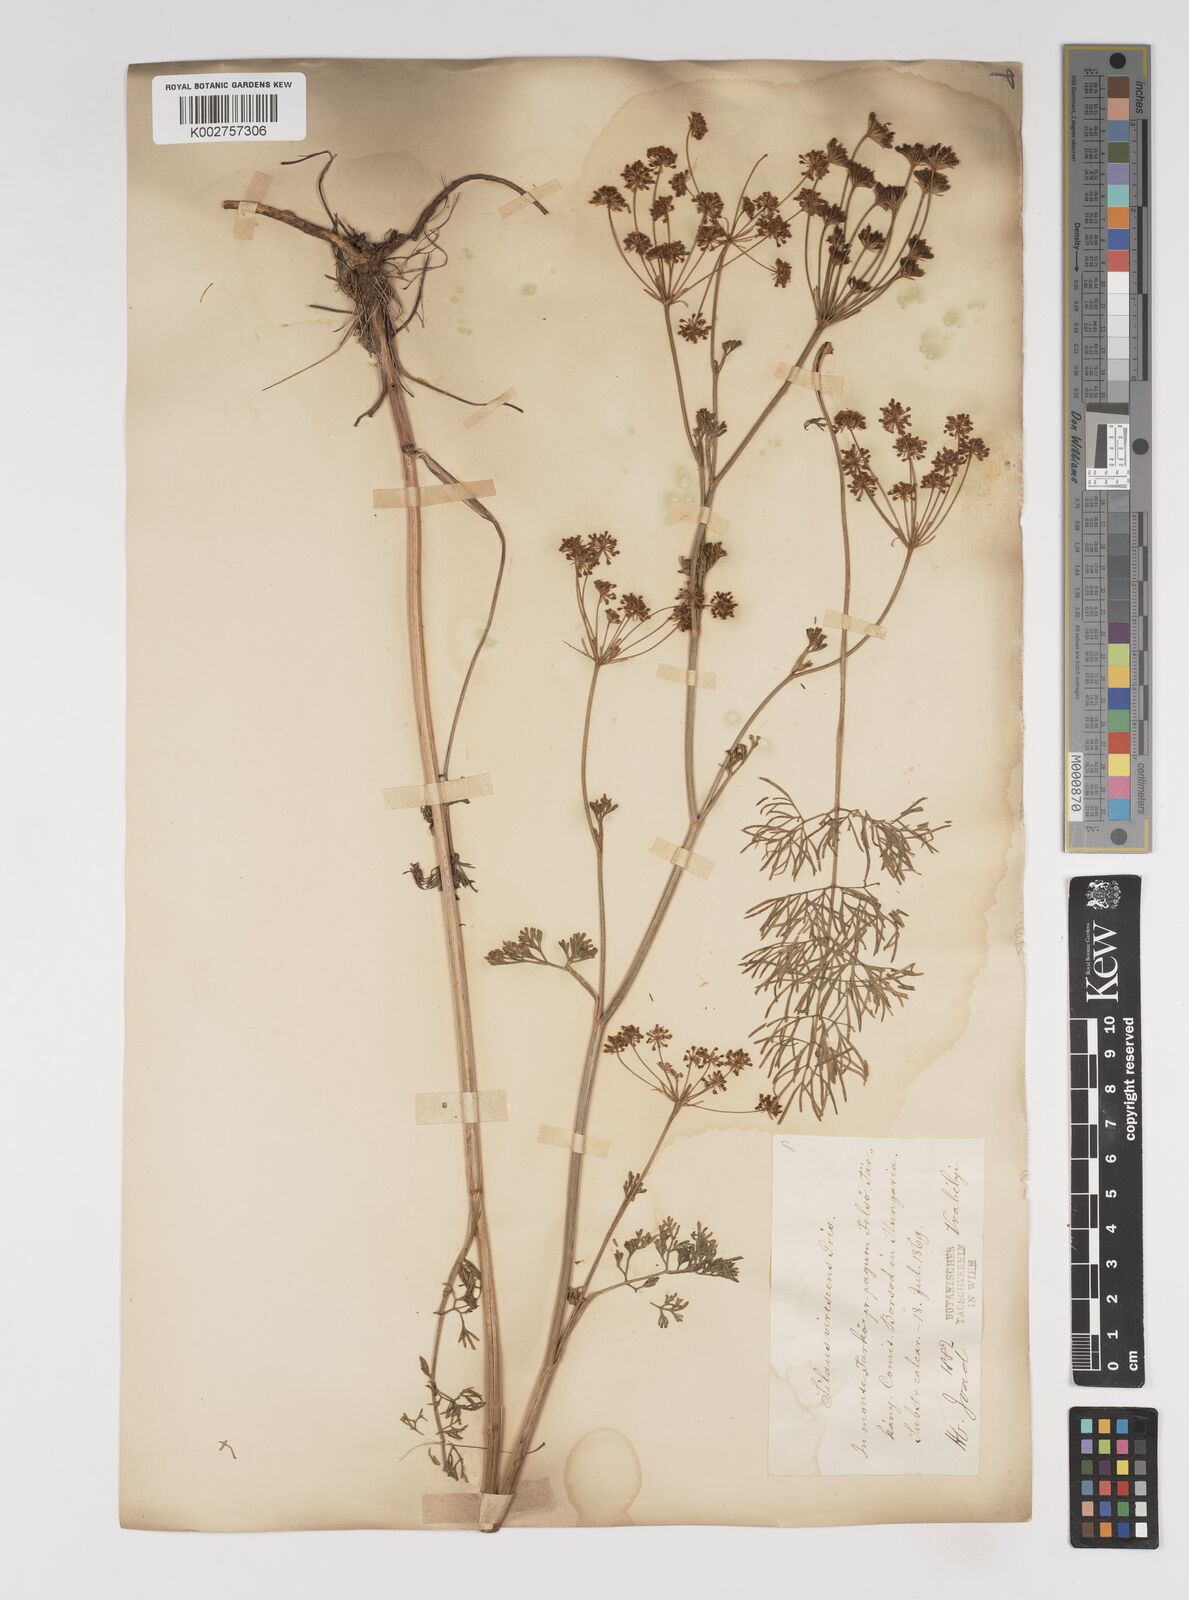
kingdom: Plantae
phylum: Tracheophyta
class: Magnoliopsida
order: Apiales
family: Apiaceae
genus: Gasparinia
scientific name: Gasparinia peucedanoides
